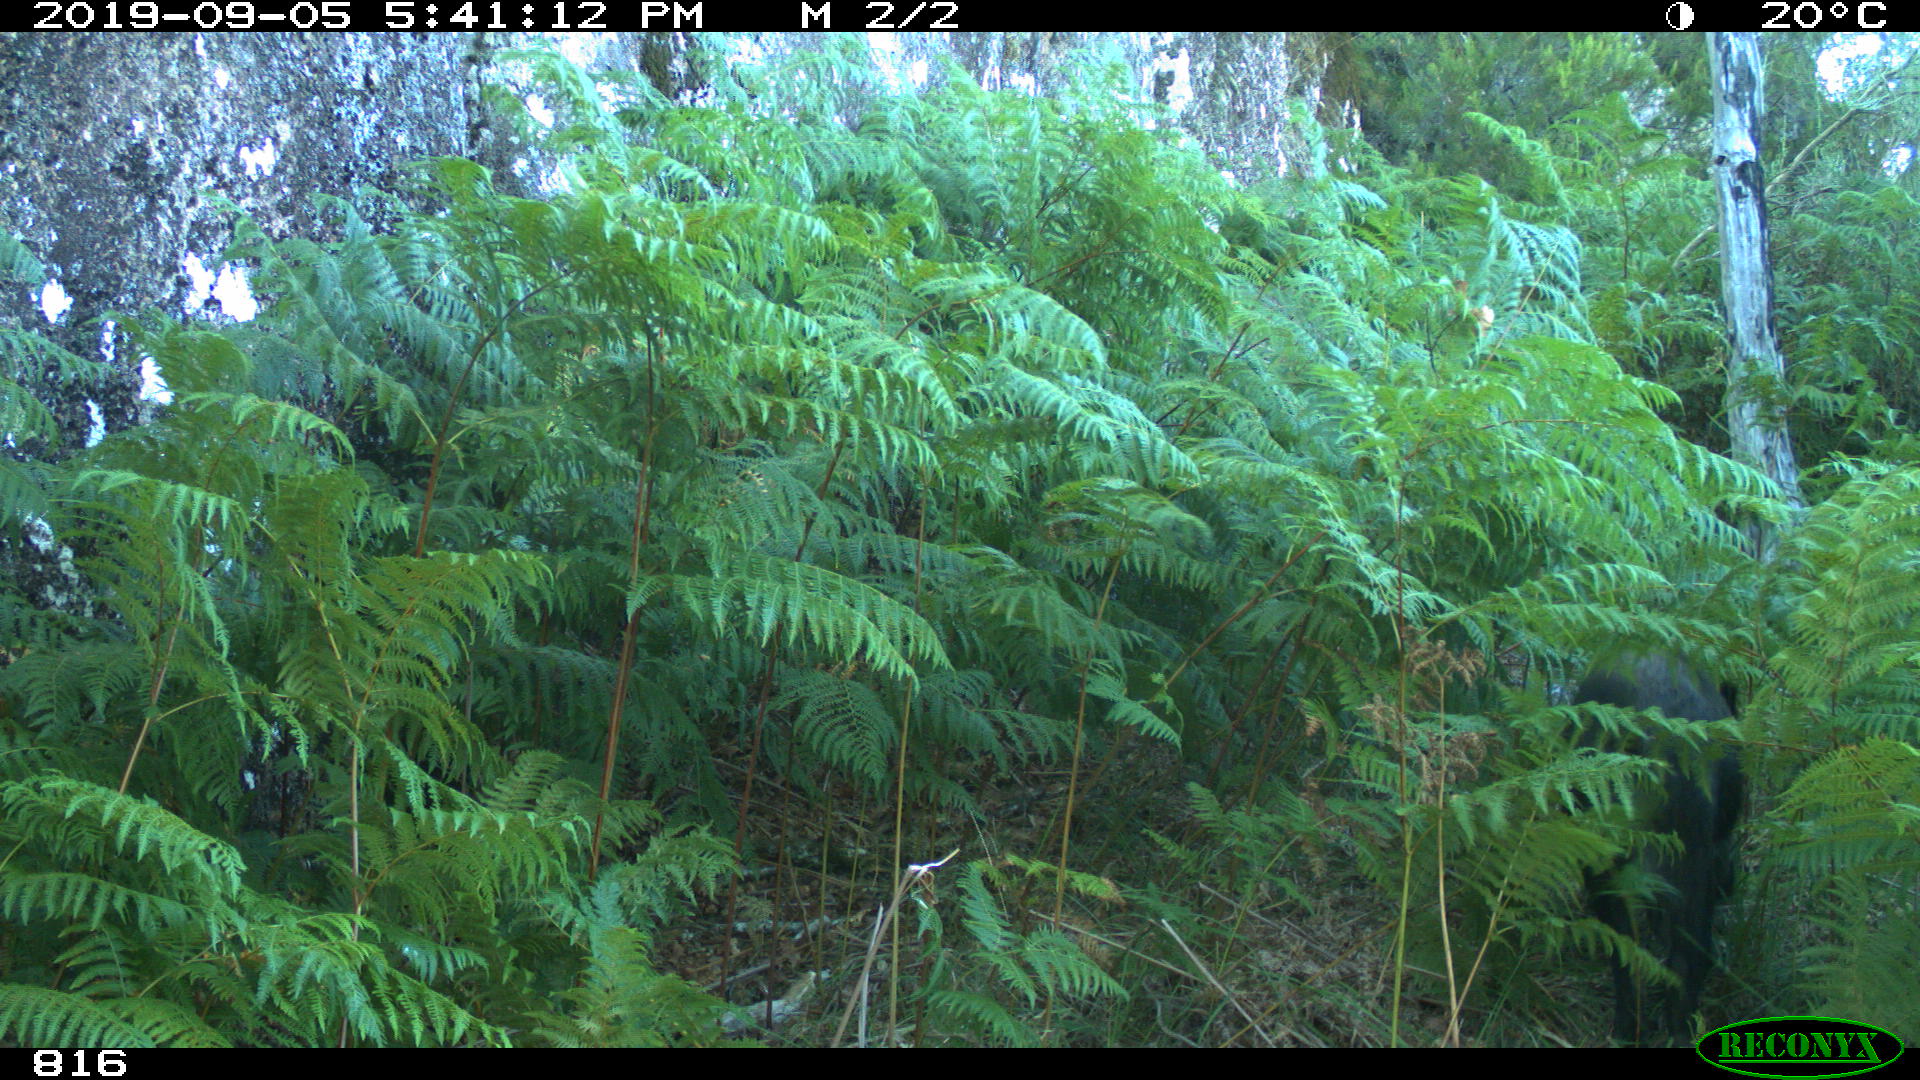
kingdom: Animalia
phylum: Chordata
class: Mammalia
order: Artiodactyla
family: Suidae
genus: Sus
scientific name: Sus scrofa
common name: Wild boar
